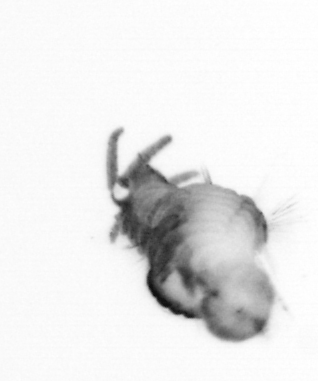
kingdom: Animalia
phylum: Annelida
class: Polychaeta
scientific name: Polychaeta
